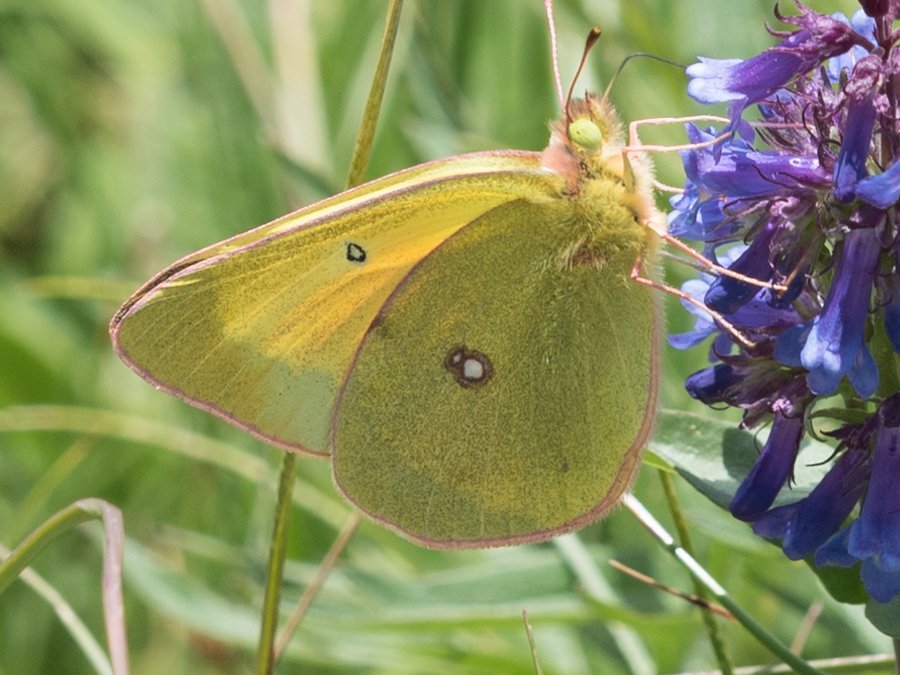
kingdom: Animalia
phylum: Arthropoda
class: Insecta
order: Lepidoptera
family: Pieridae
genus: Colias
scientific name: Colias christina
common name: Christina Sulphur
